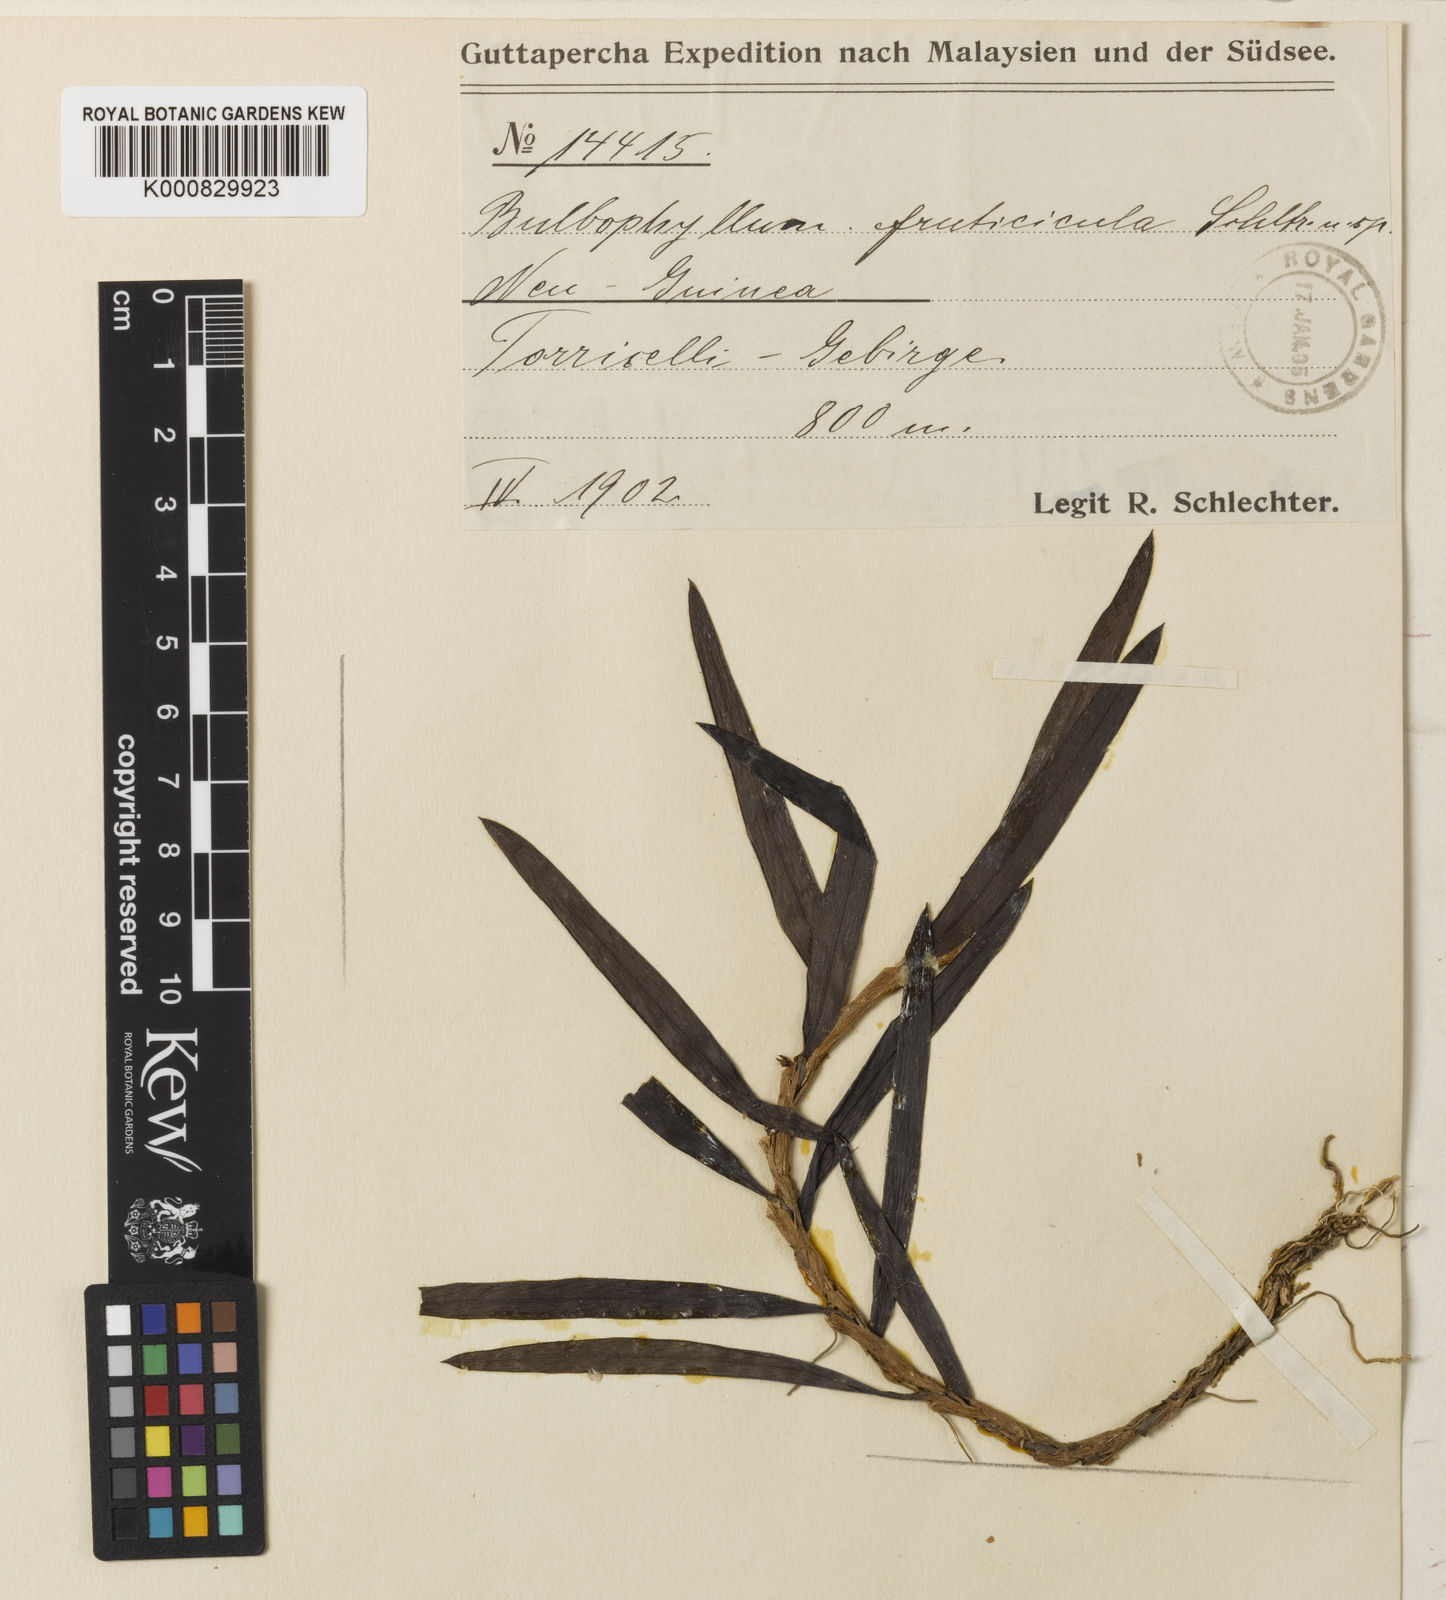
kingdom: Plantae
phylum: Tracheophyta
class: Liliopsida
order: Asparagales
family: Orchidaceae
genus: Bulbophyllum
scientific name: Bulbophyllum fruticulum
